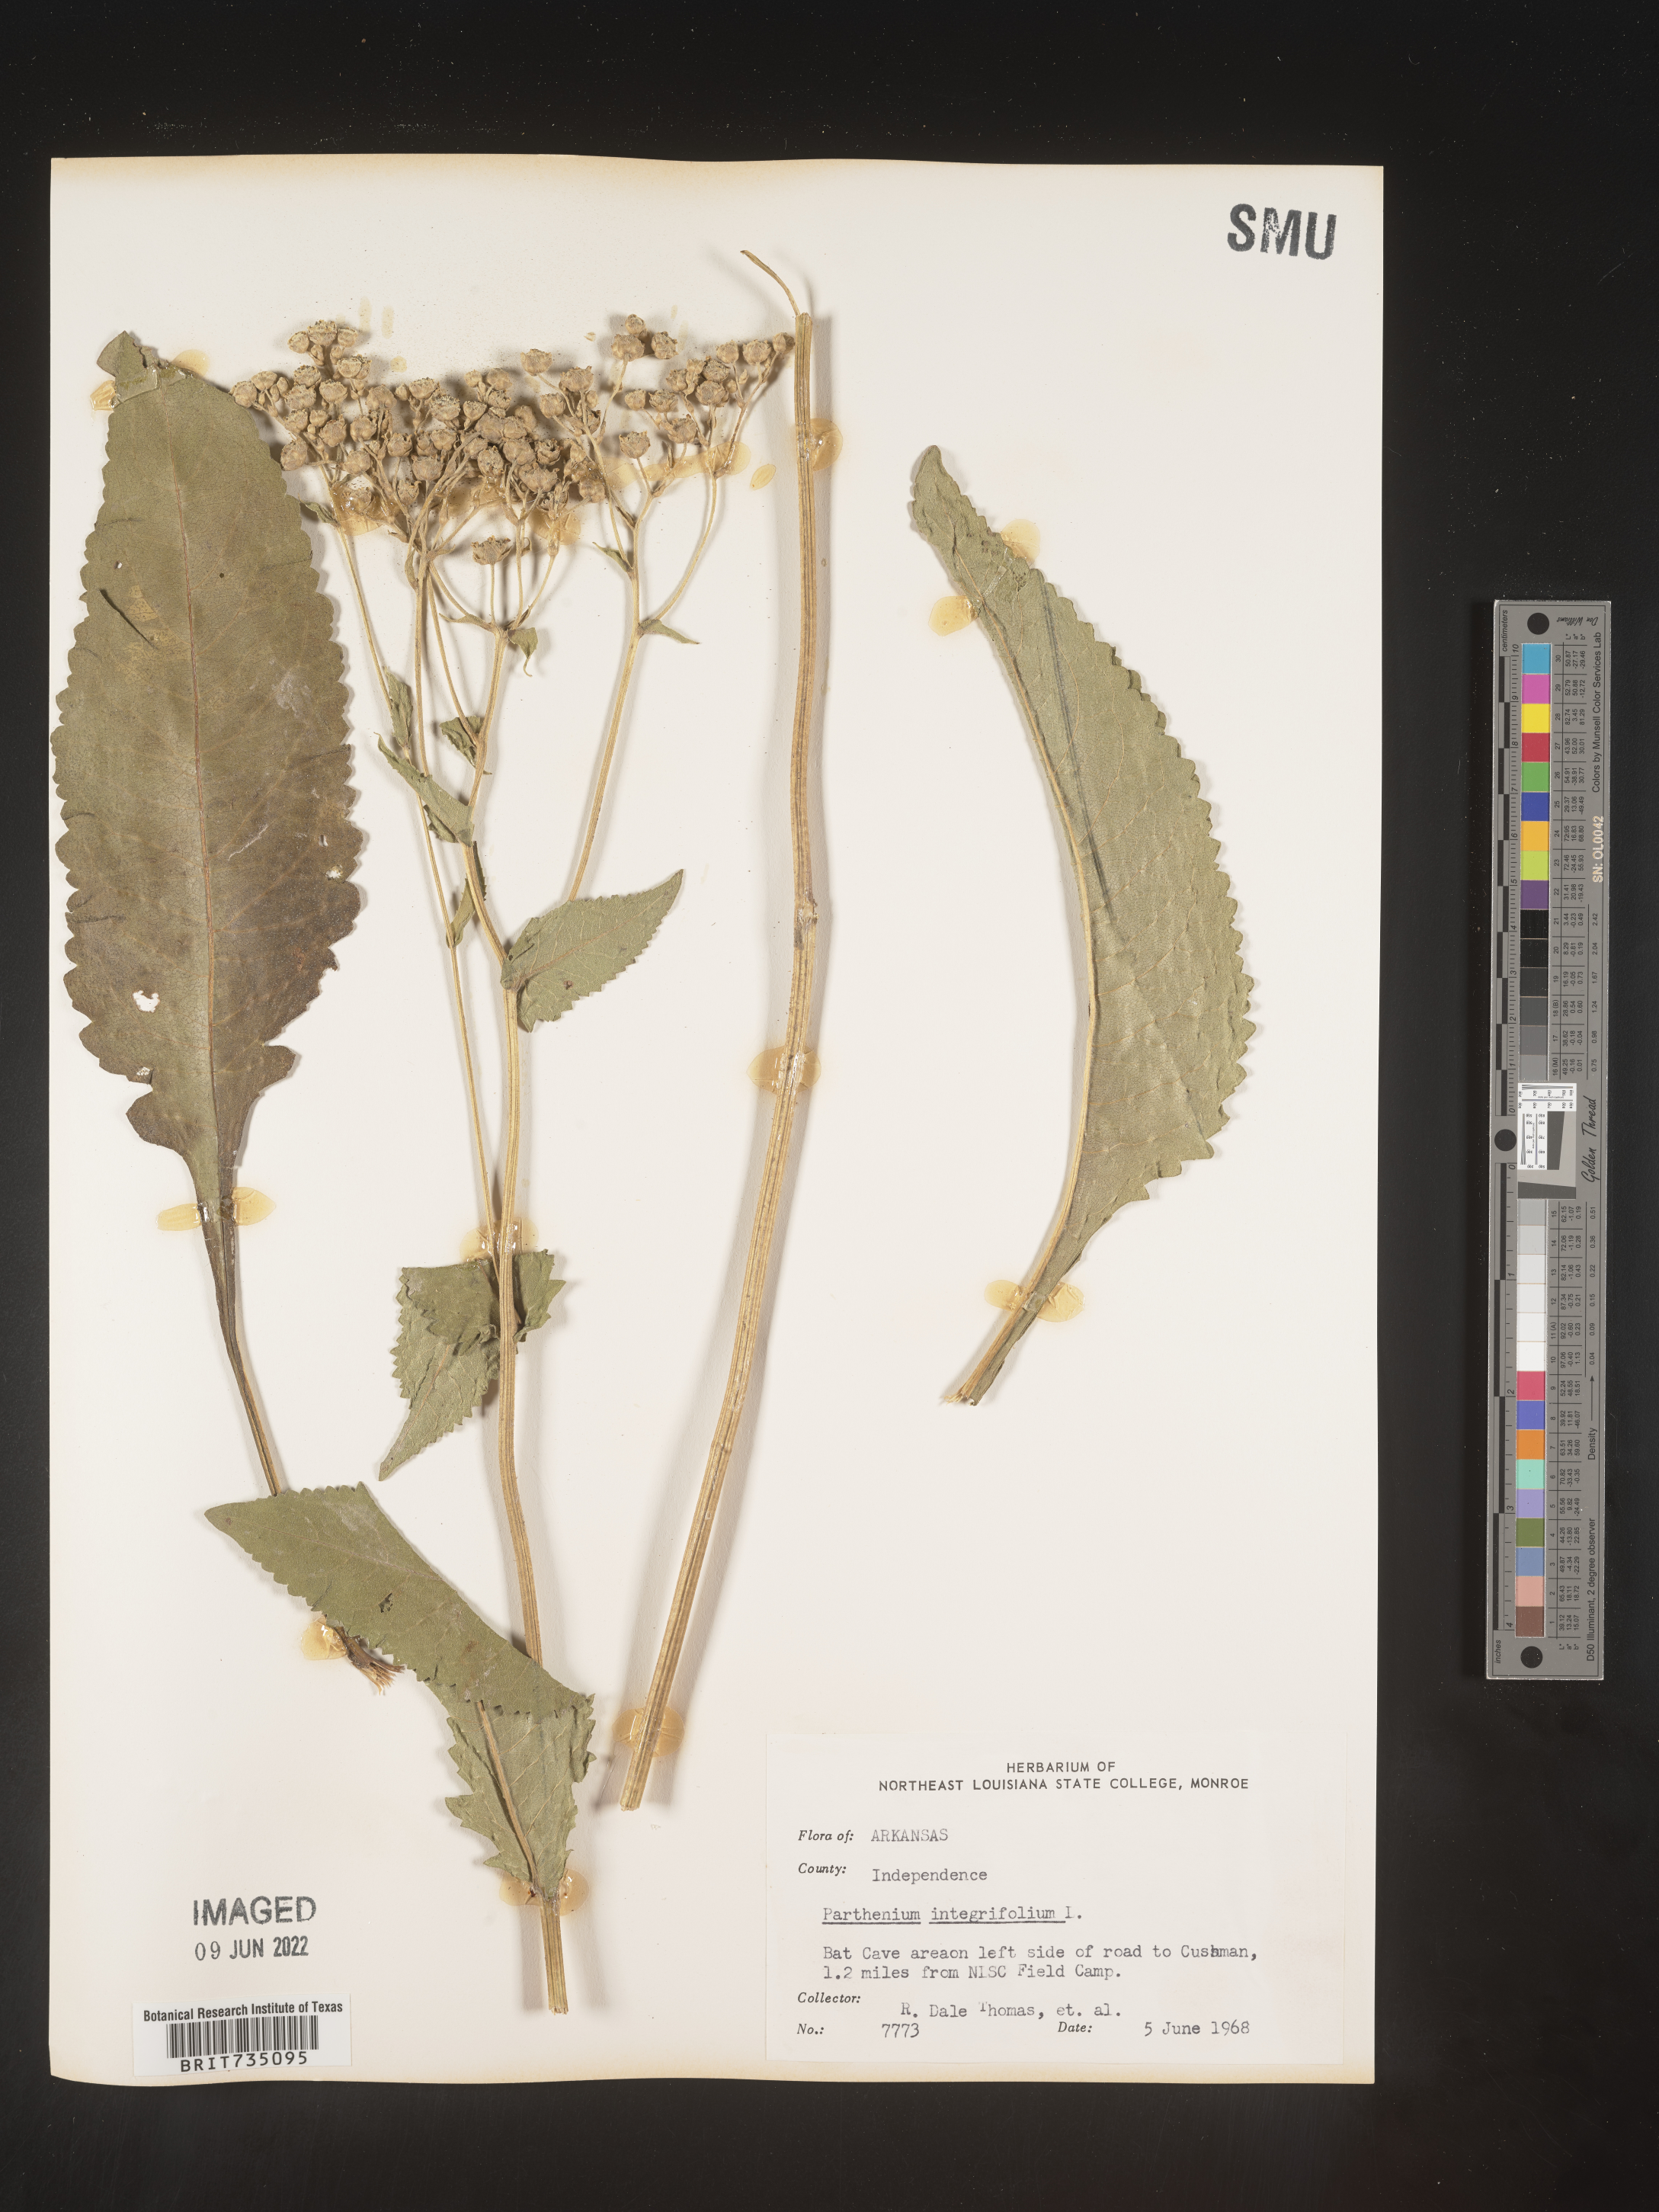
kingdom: Plantae
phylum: Tracheophyta
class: Magnoliopsida
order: Asterales
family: Asteraceae
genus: Parthenium
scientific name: Parthenium integrifolium
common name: American feverfew
